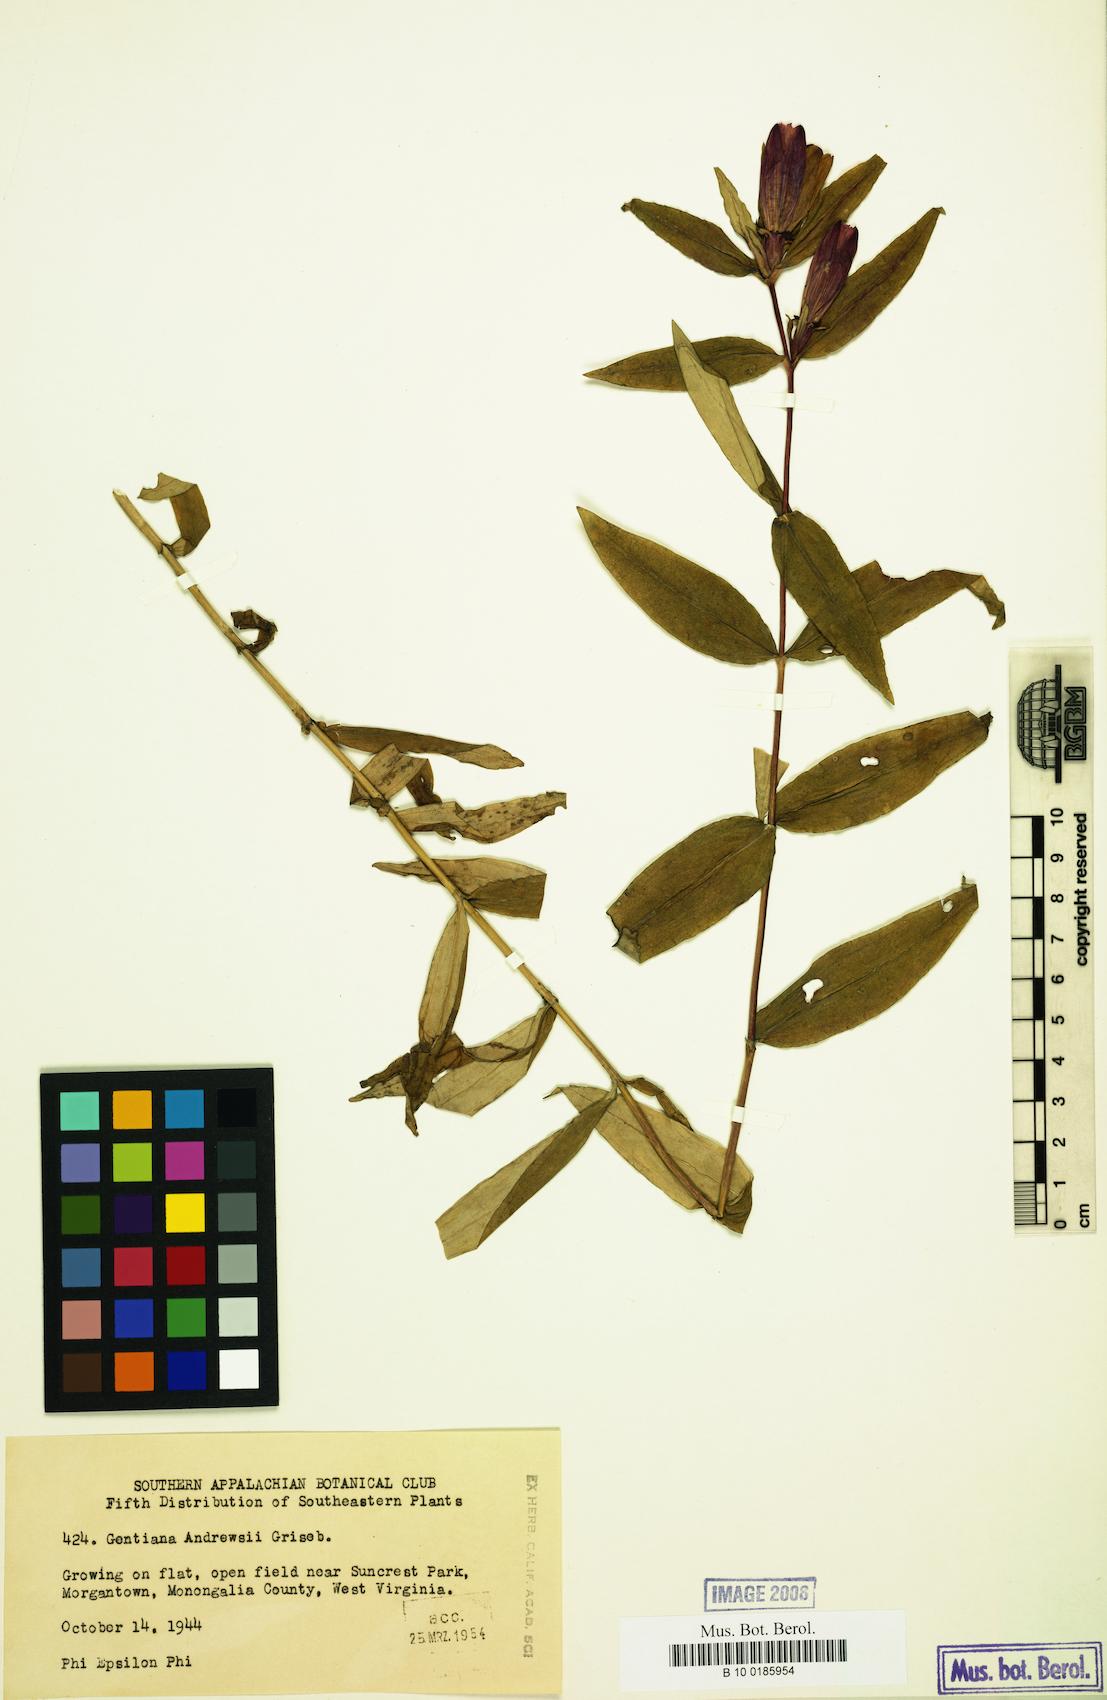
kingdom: Plantae
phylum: Tracheophyta
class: Magnoliopsida
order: Gentianales
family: Gentianaceae
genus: Gentiana
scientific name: Gentiana andrewsii
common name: Bottle gentian
